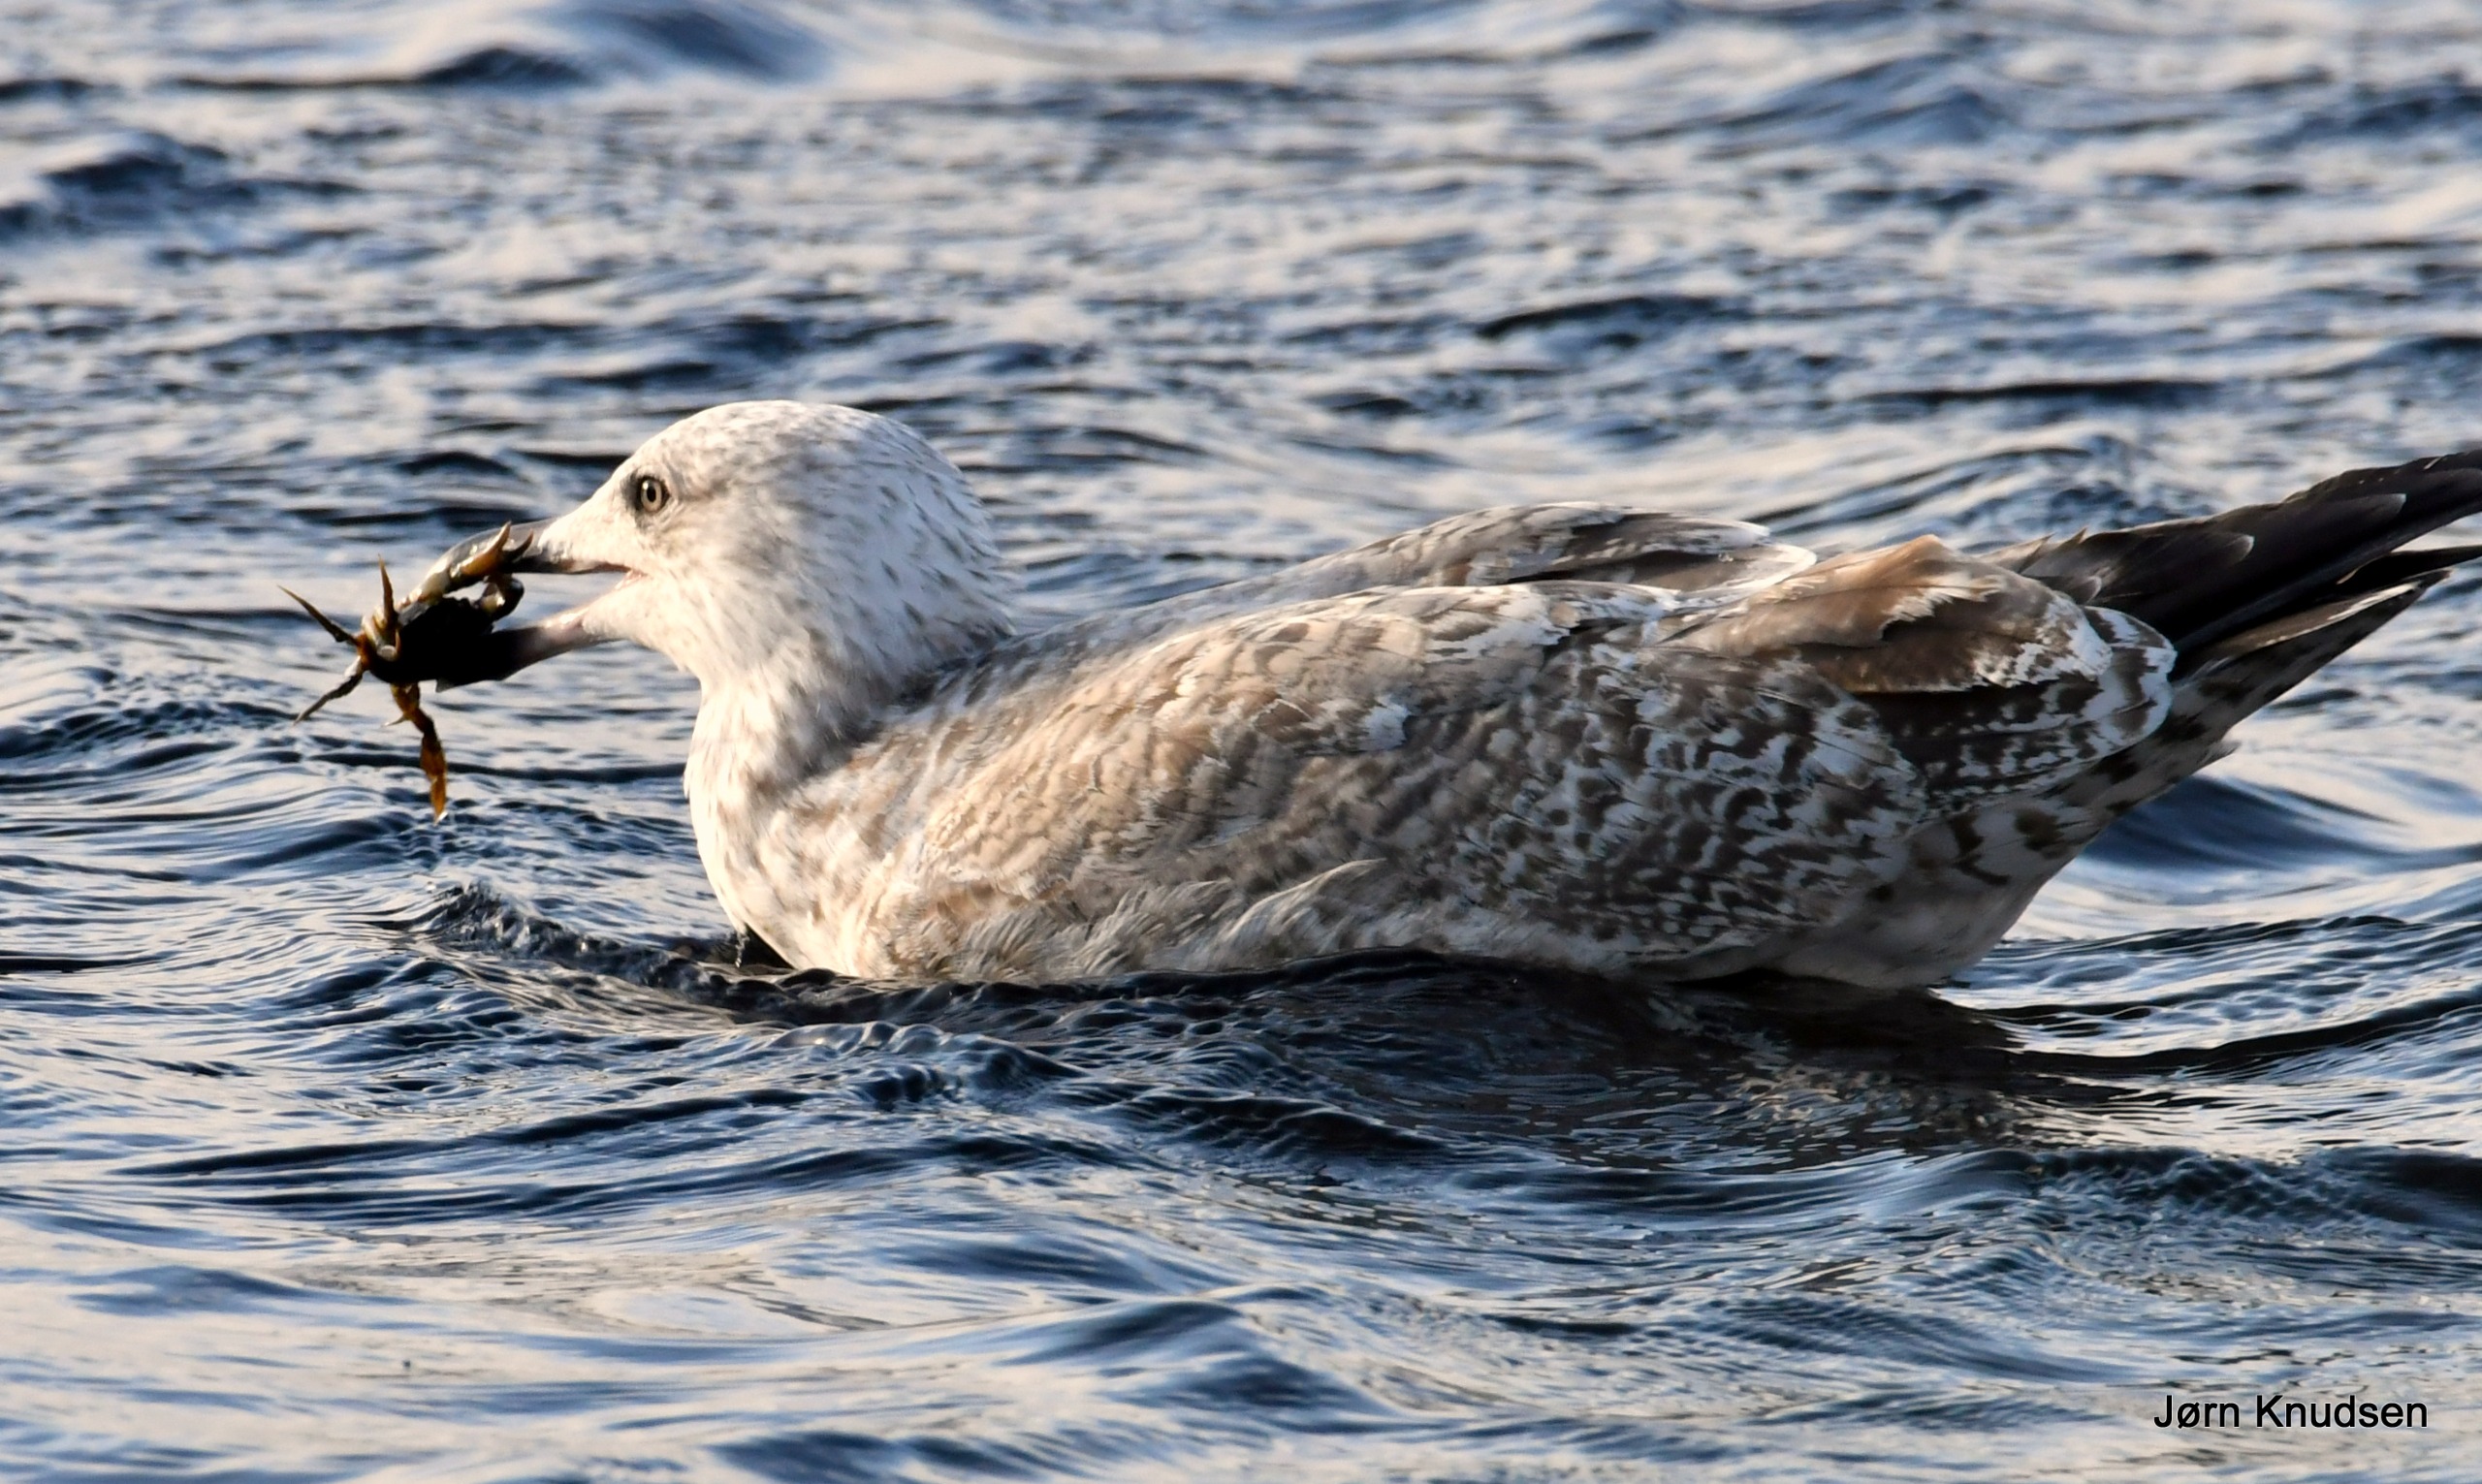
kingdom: Animalia
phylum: Chordata
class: Aves
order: Charadriiformes
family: Laridae
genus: Larus
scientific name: Larus argentatus
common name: Sølvmåge
